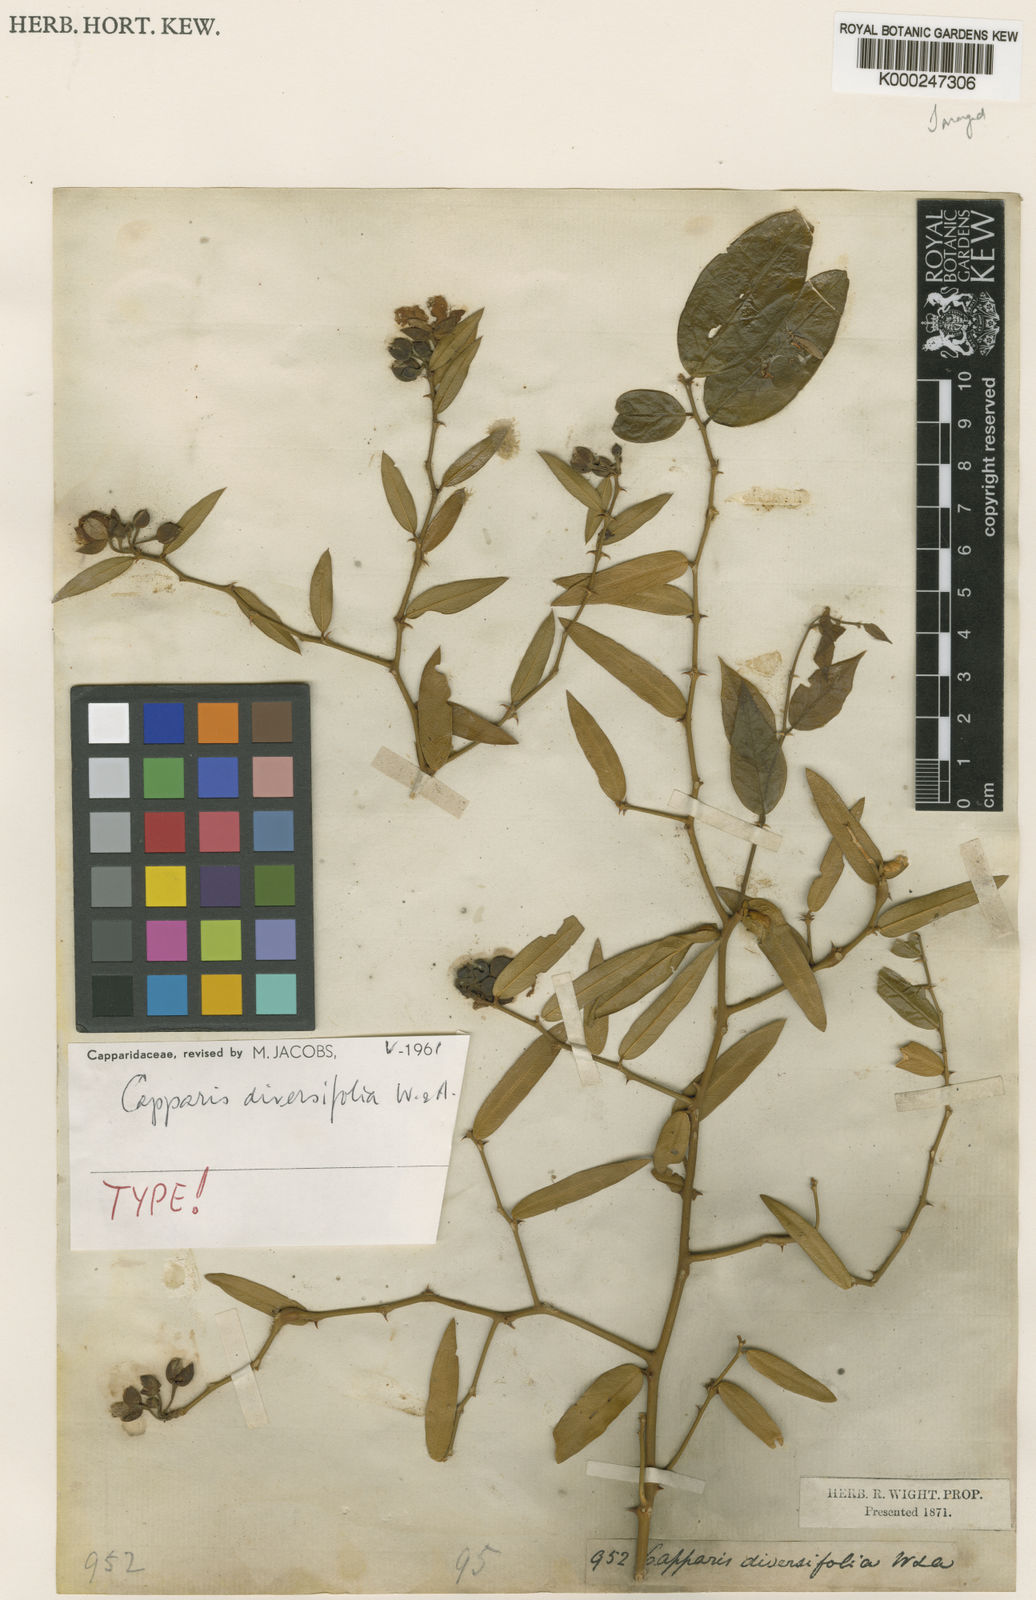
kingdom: Plantae
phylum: Tracheophyta
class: Magnoliopsida
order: Brassicales
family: Capparaceae
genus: Capparis
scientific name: Capparis flavicans
